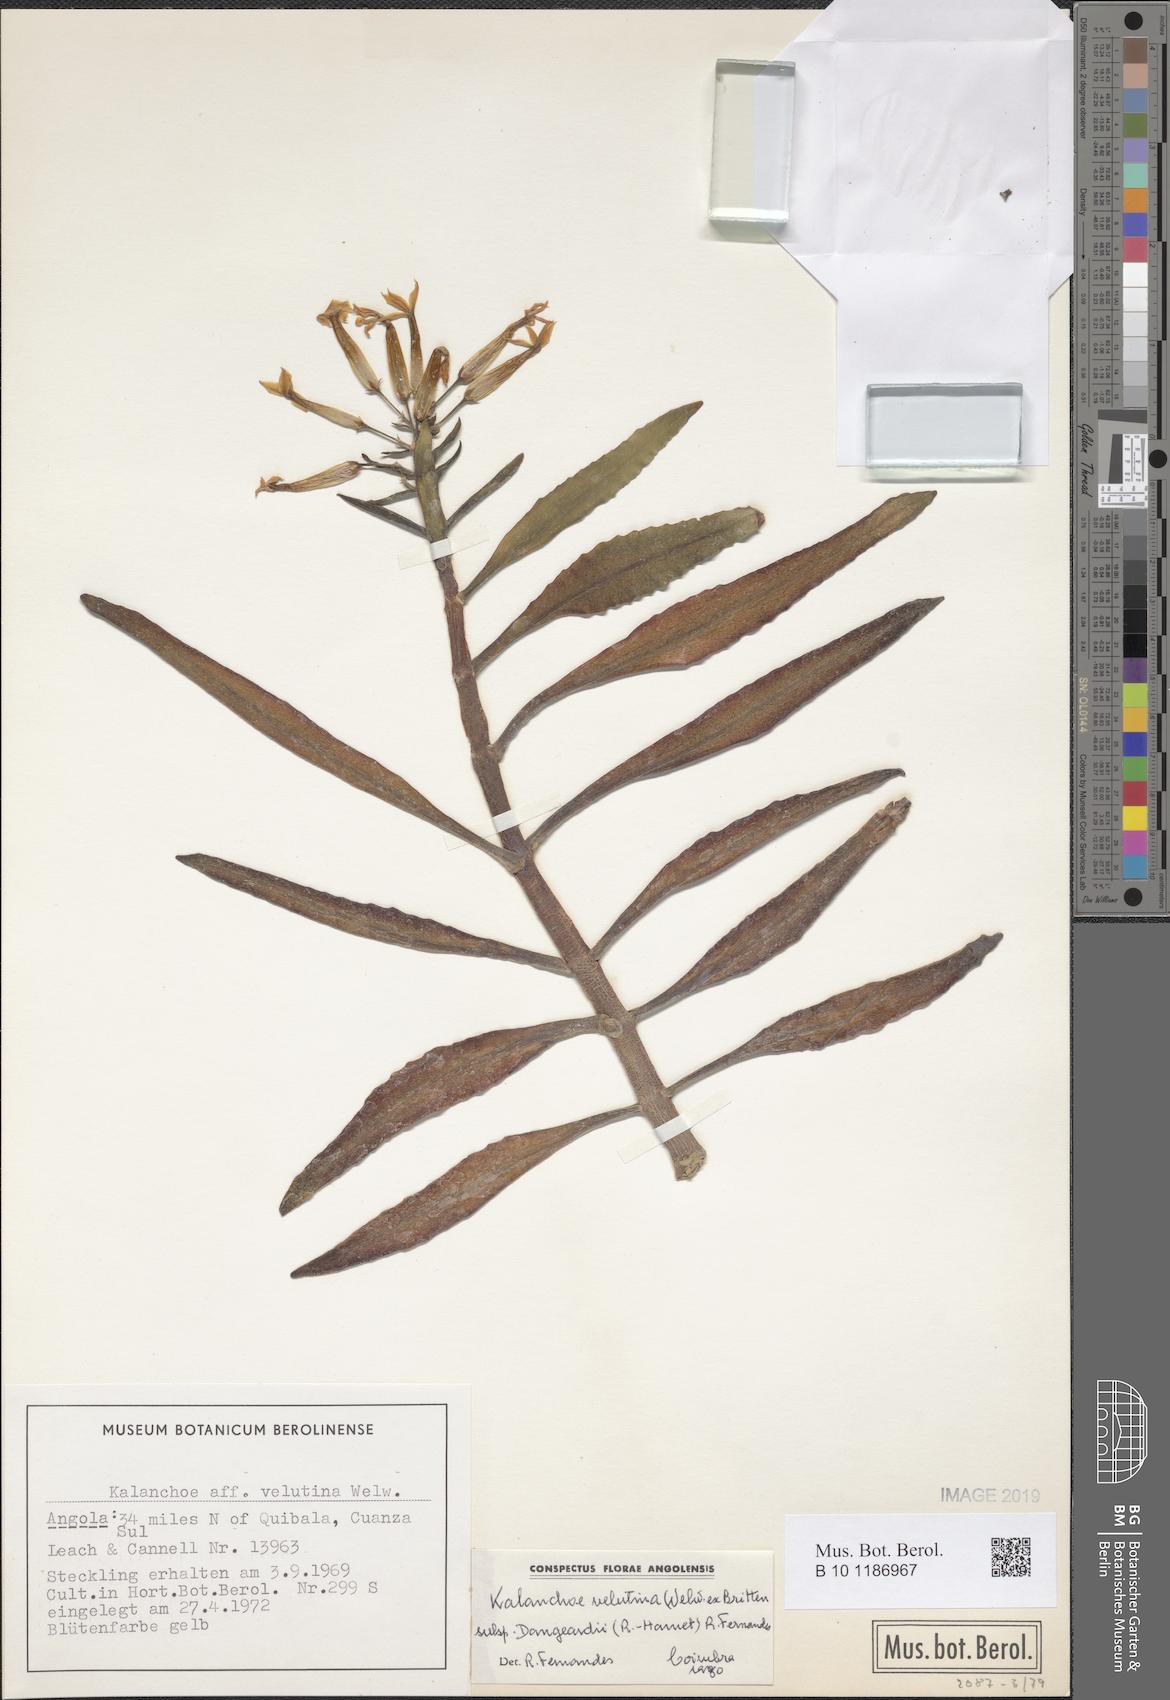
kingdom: Plantae
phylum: Tracheophyta
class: Magnoliopsida
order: Saxifragales
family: Crassulaceae
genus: Kalanchoe
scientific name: Kalanchoe velutina
